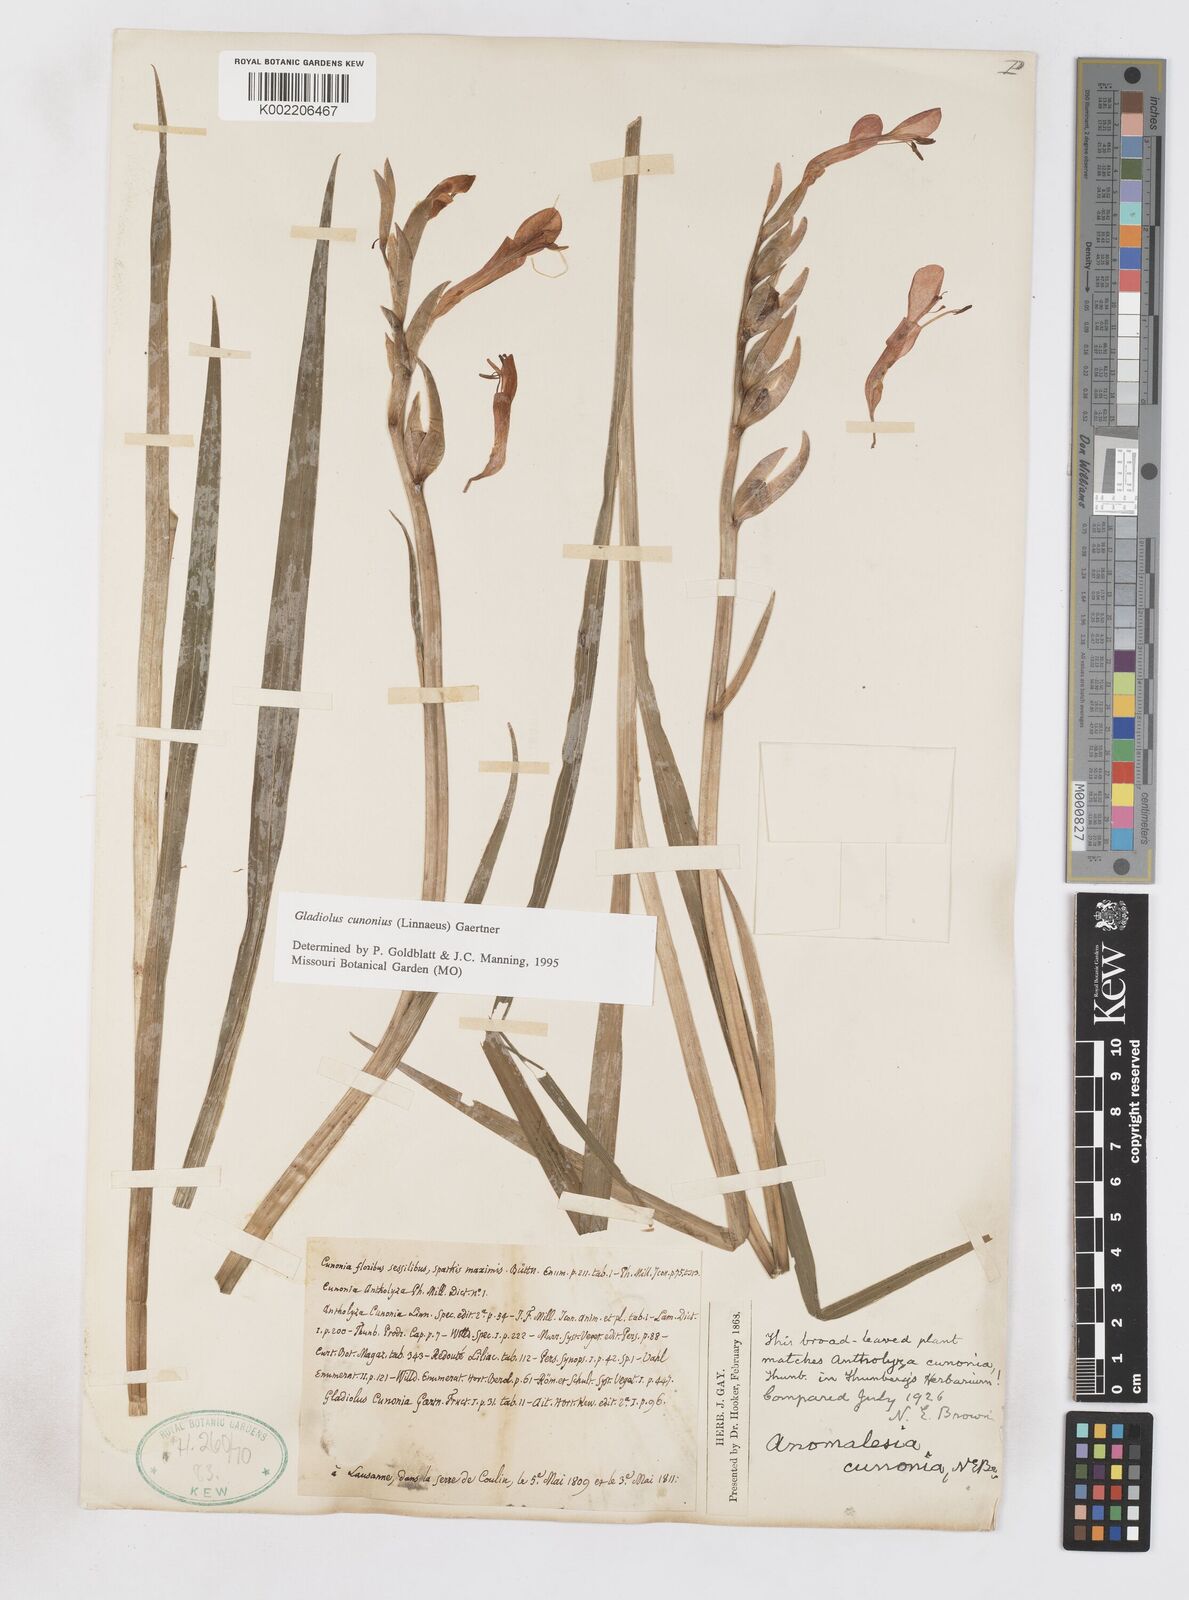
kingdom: Plantae
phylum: Tracheophyta
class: Liliopsida
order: Asparagales
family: Iridaceae
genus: Gladiolus
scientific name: Gladiolus cunonius
